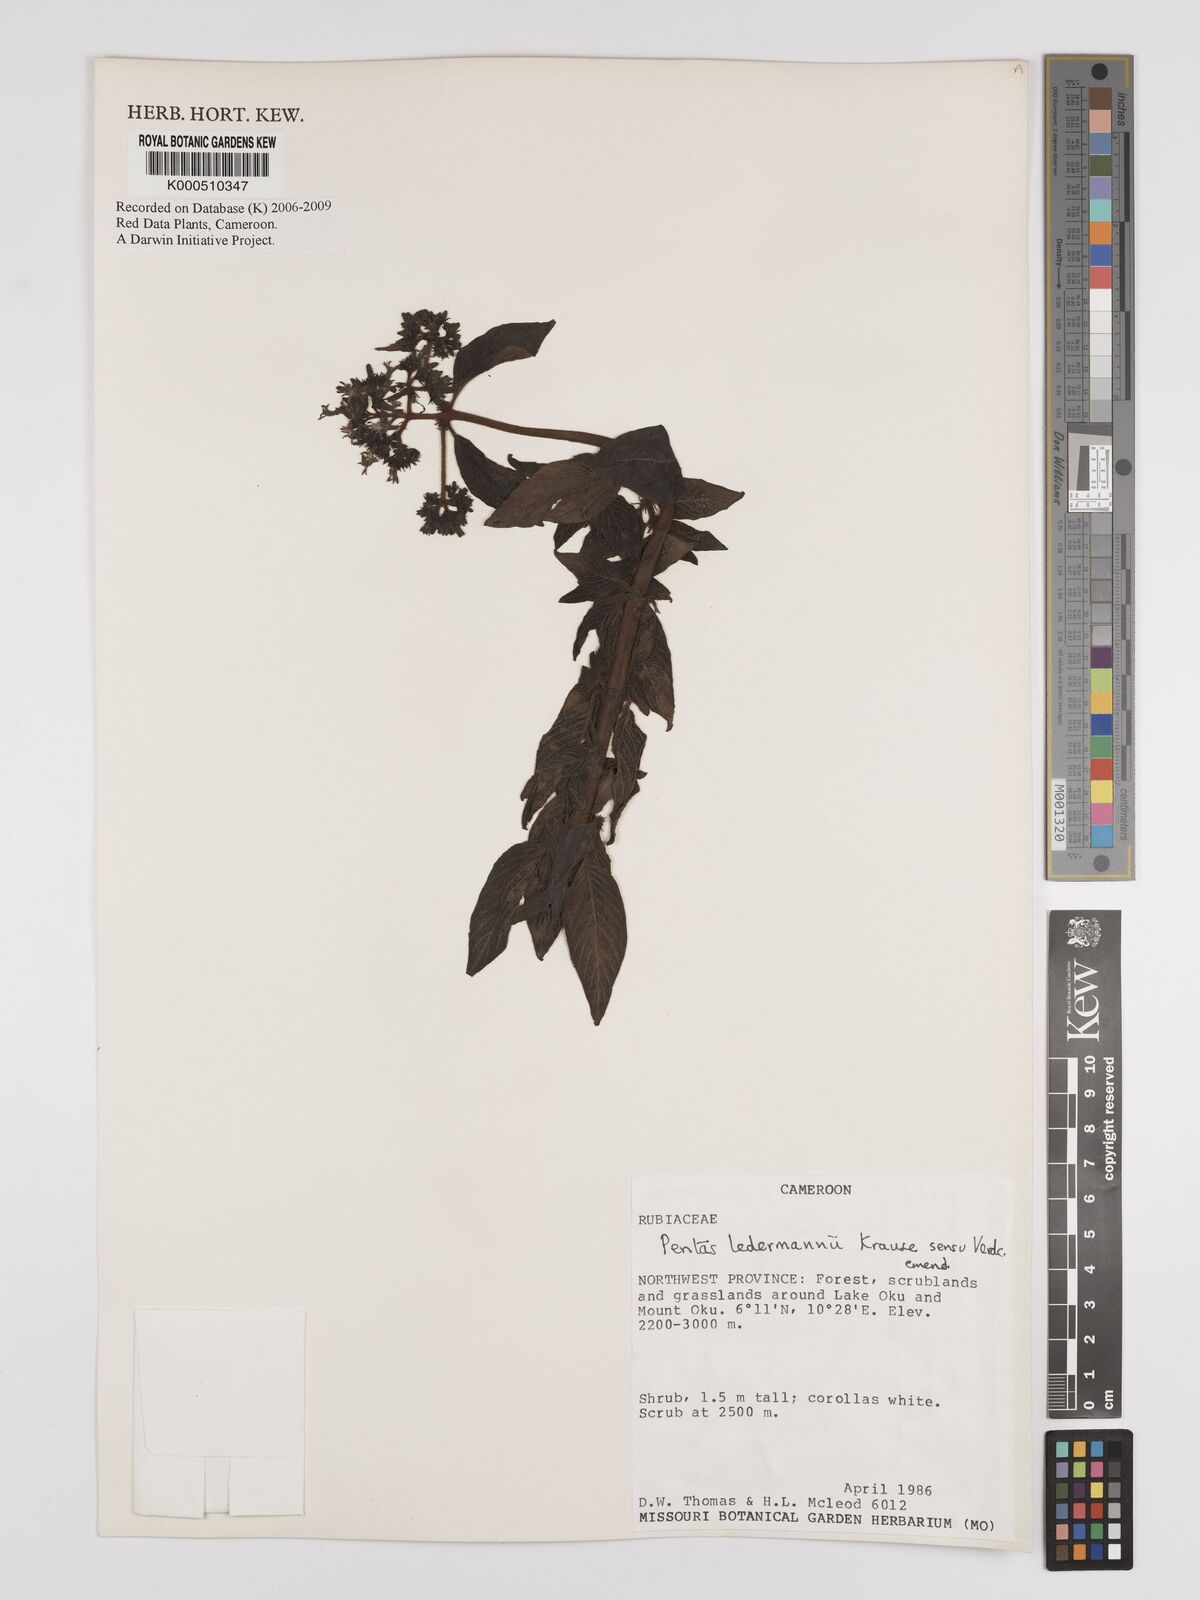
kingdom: Plantae
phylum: Tracheophyta
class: Magnoliopsida
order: Gentianales
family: Rubiaceae
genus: Phyllopentas
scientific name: Phyllopentas ledermannii
